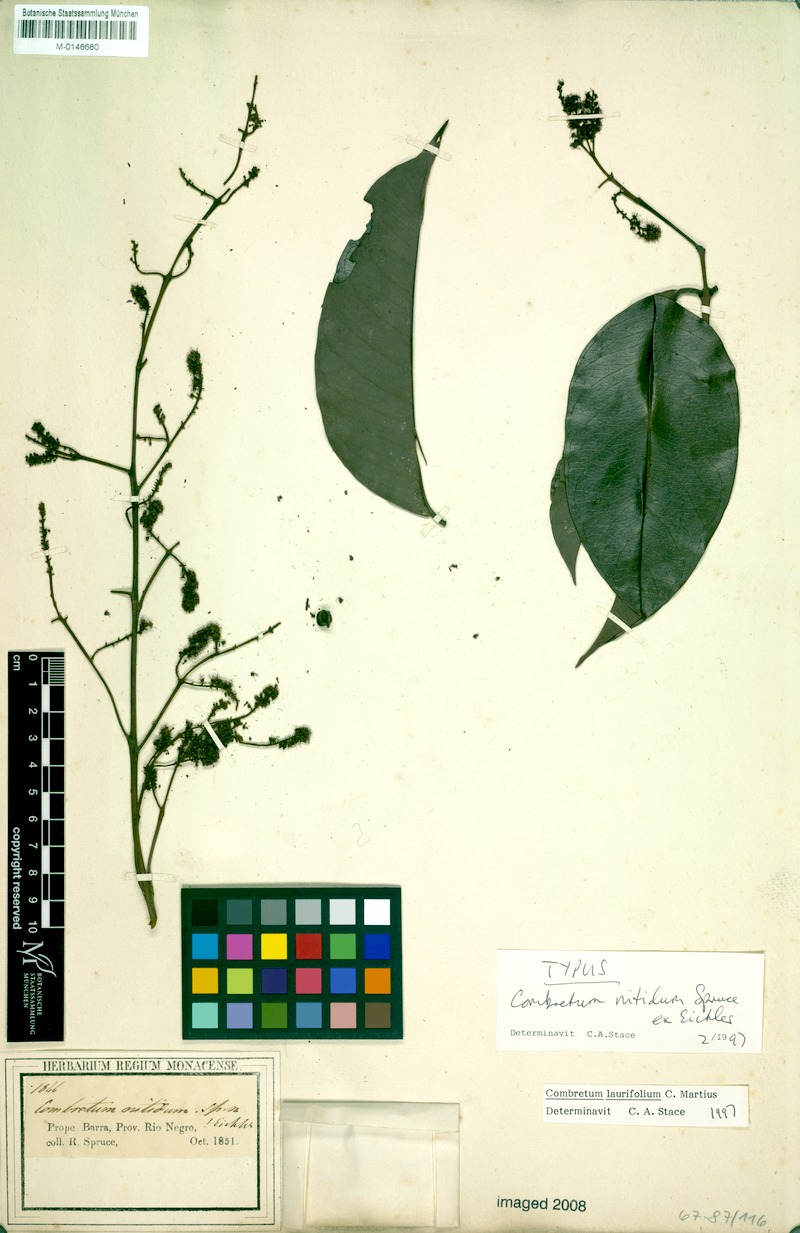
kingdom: Plantae
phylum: Tracheophyta
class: Magnoliopsida
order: Myrtales
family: Combretaceae
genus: Combretum
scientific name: Combretum laurifolium
